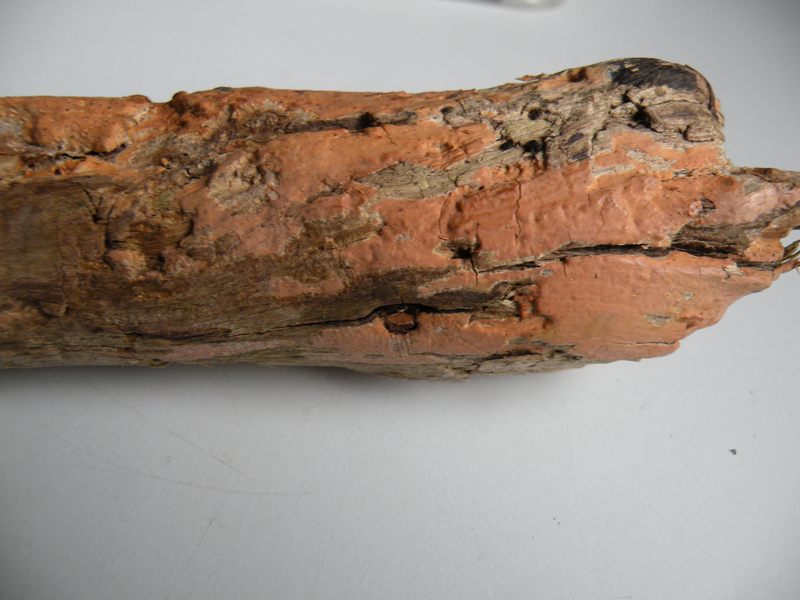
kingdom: Fungi
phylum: Basidiomycota
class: Agaricomycetes
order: Russulales
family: Peniophoraceae
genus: Peniophora
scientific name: Peniophora incarnata
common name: laksefarvet voksskind
